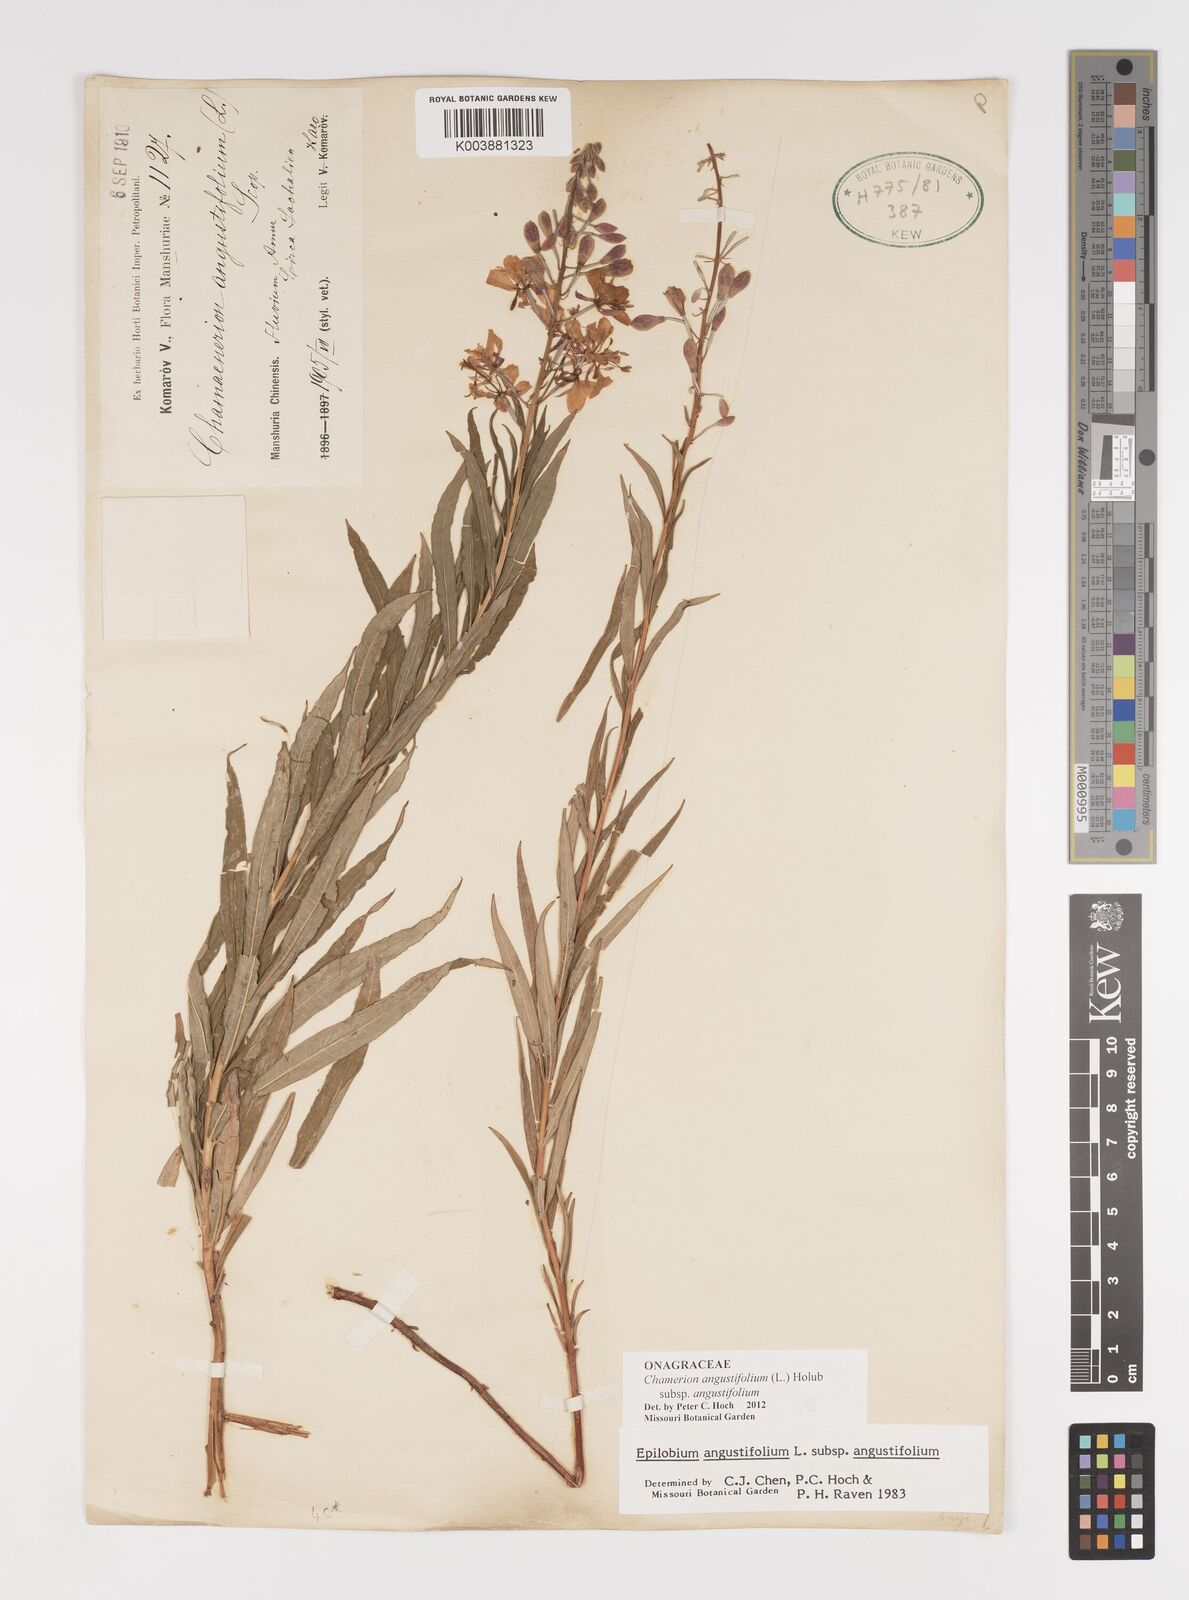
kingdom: Plantae
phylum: Tracheophyta
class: Magnoliopsida
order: Myrtales
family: Onagraceae
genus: Chamaenerion
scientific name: Chamaenerion angustifolium
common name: Fireweed
